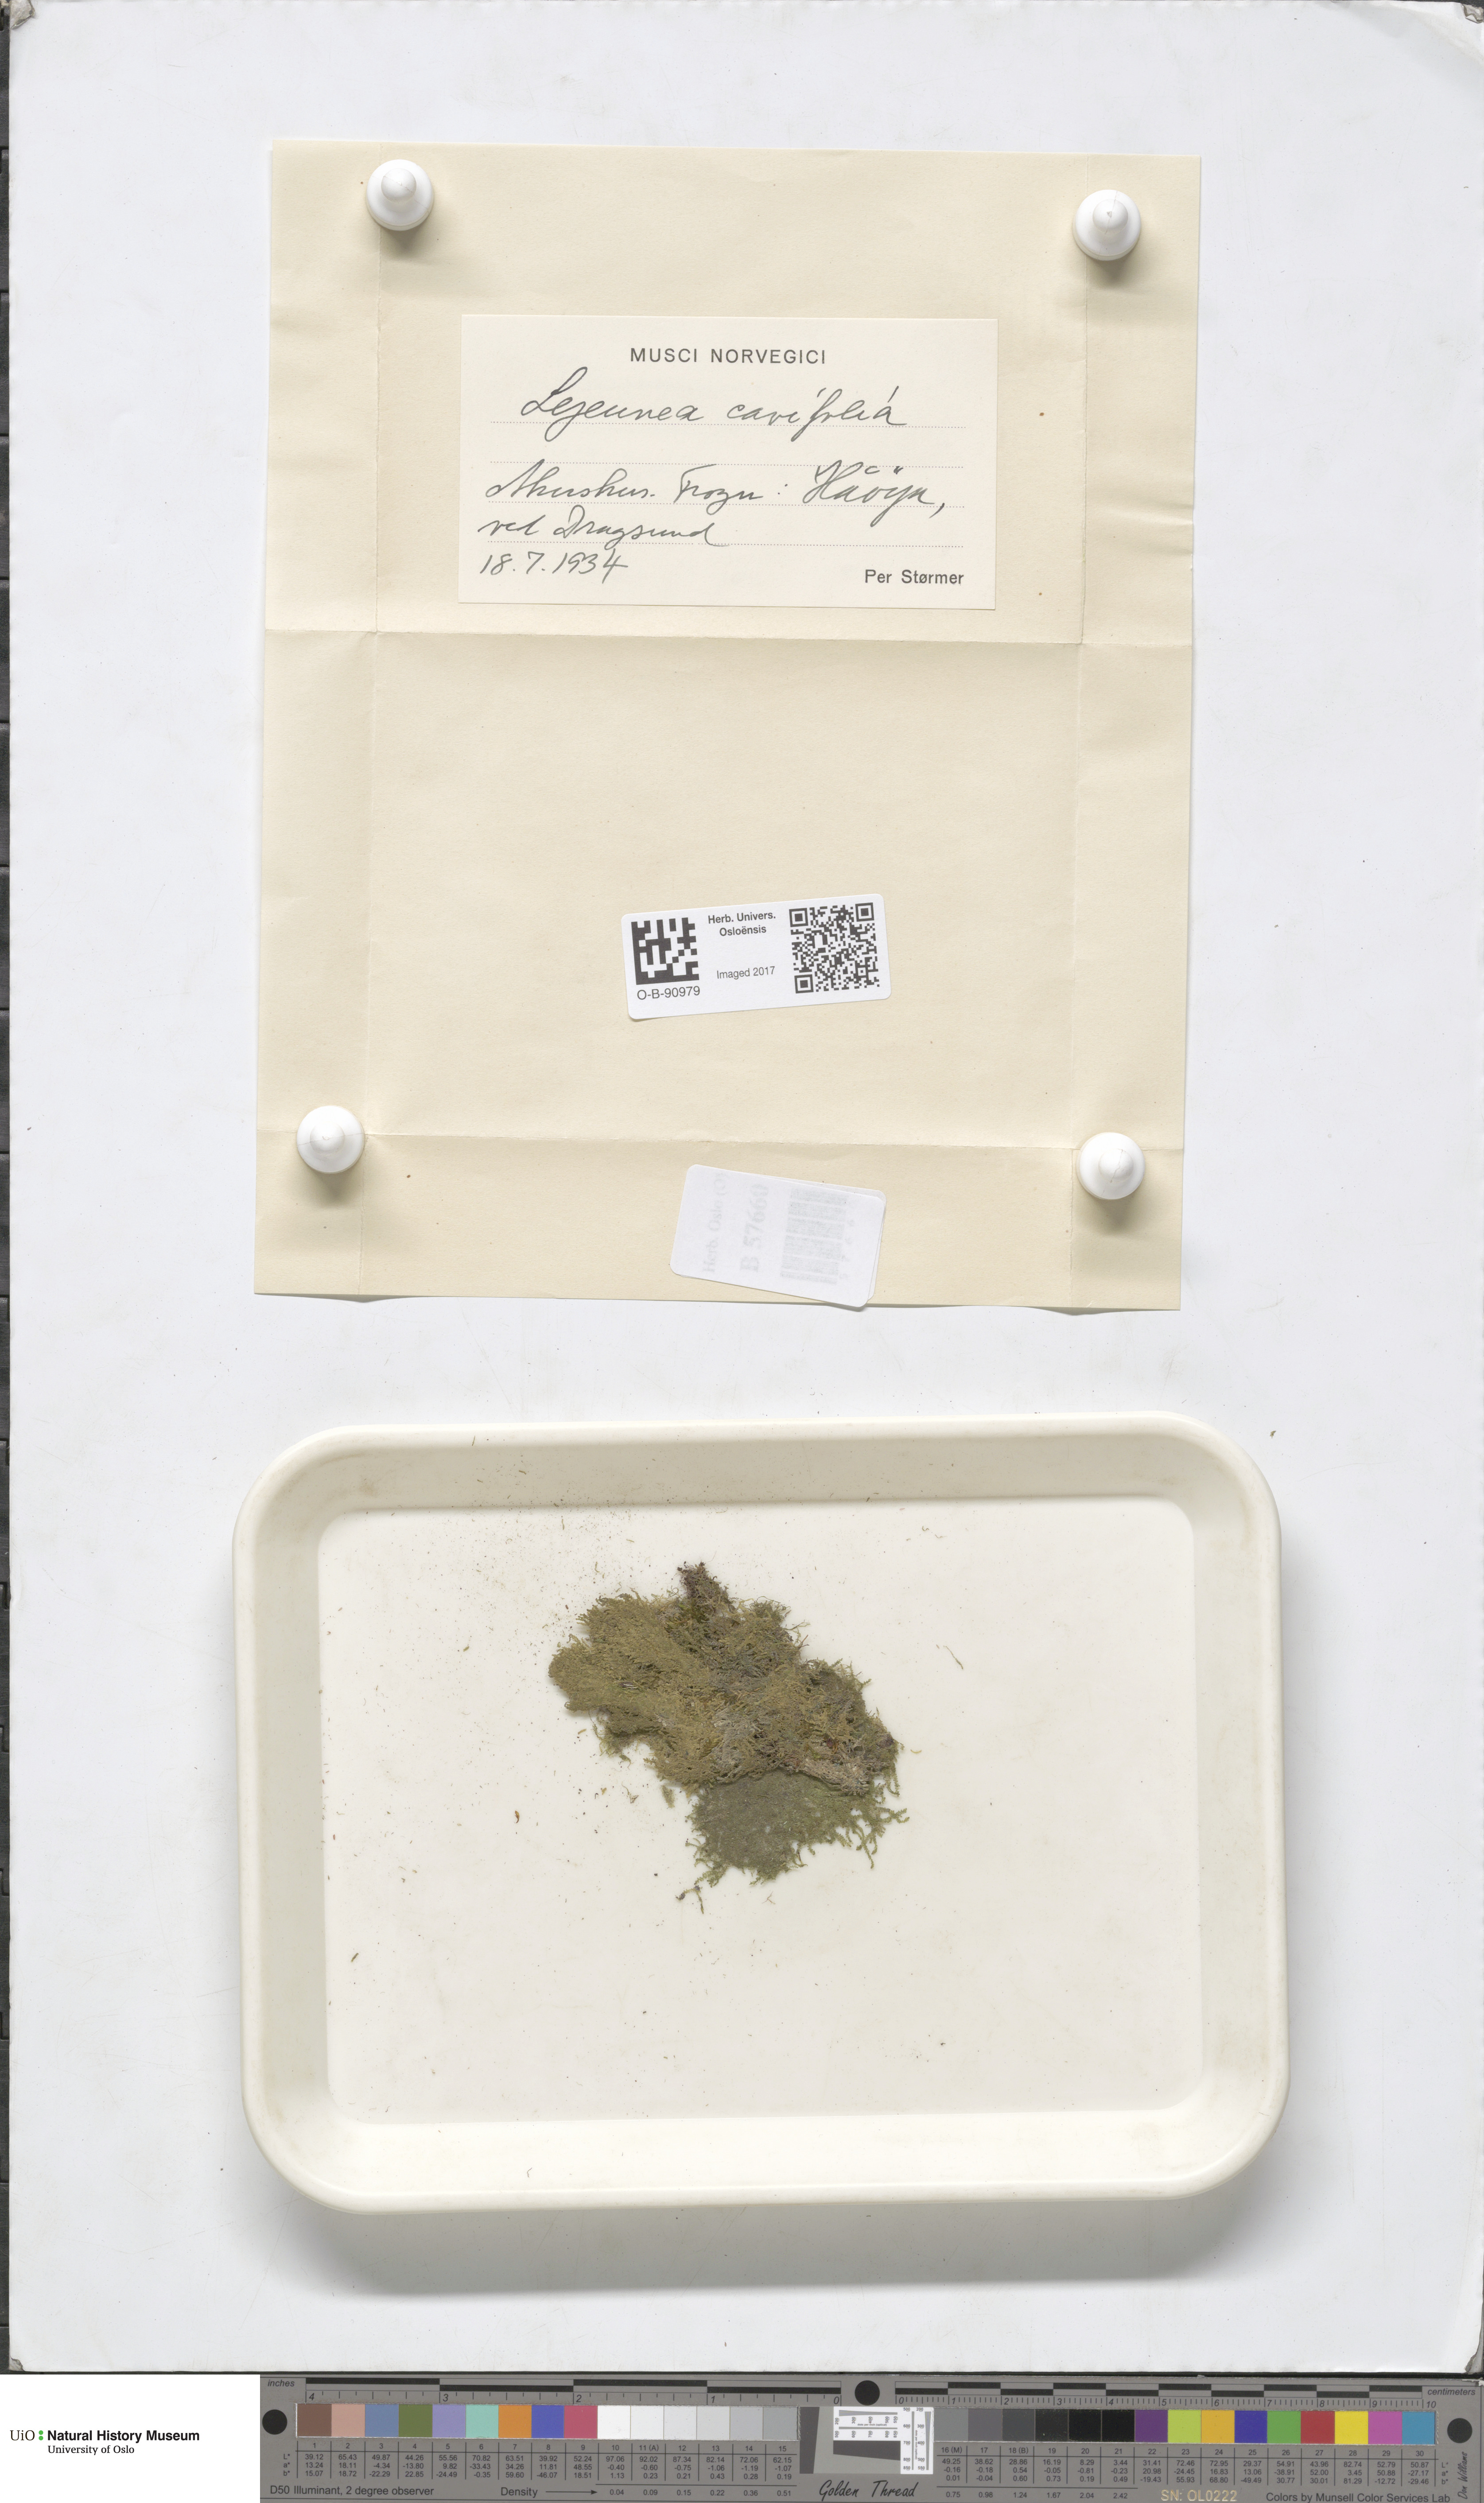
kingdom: Plantae
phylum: Marchantiophyta
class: Jungermanniopsida
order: Porellales
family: Lejeuneaceae
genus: Lejeunea
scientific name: Lejeunea cavifolia
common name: Least pouncewort
